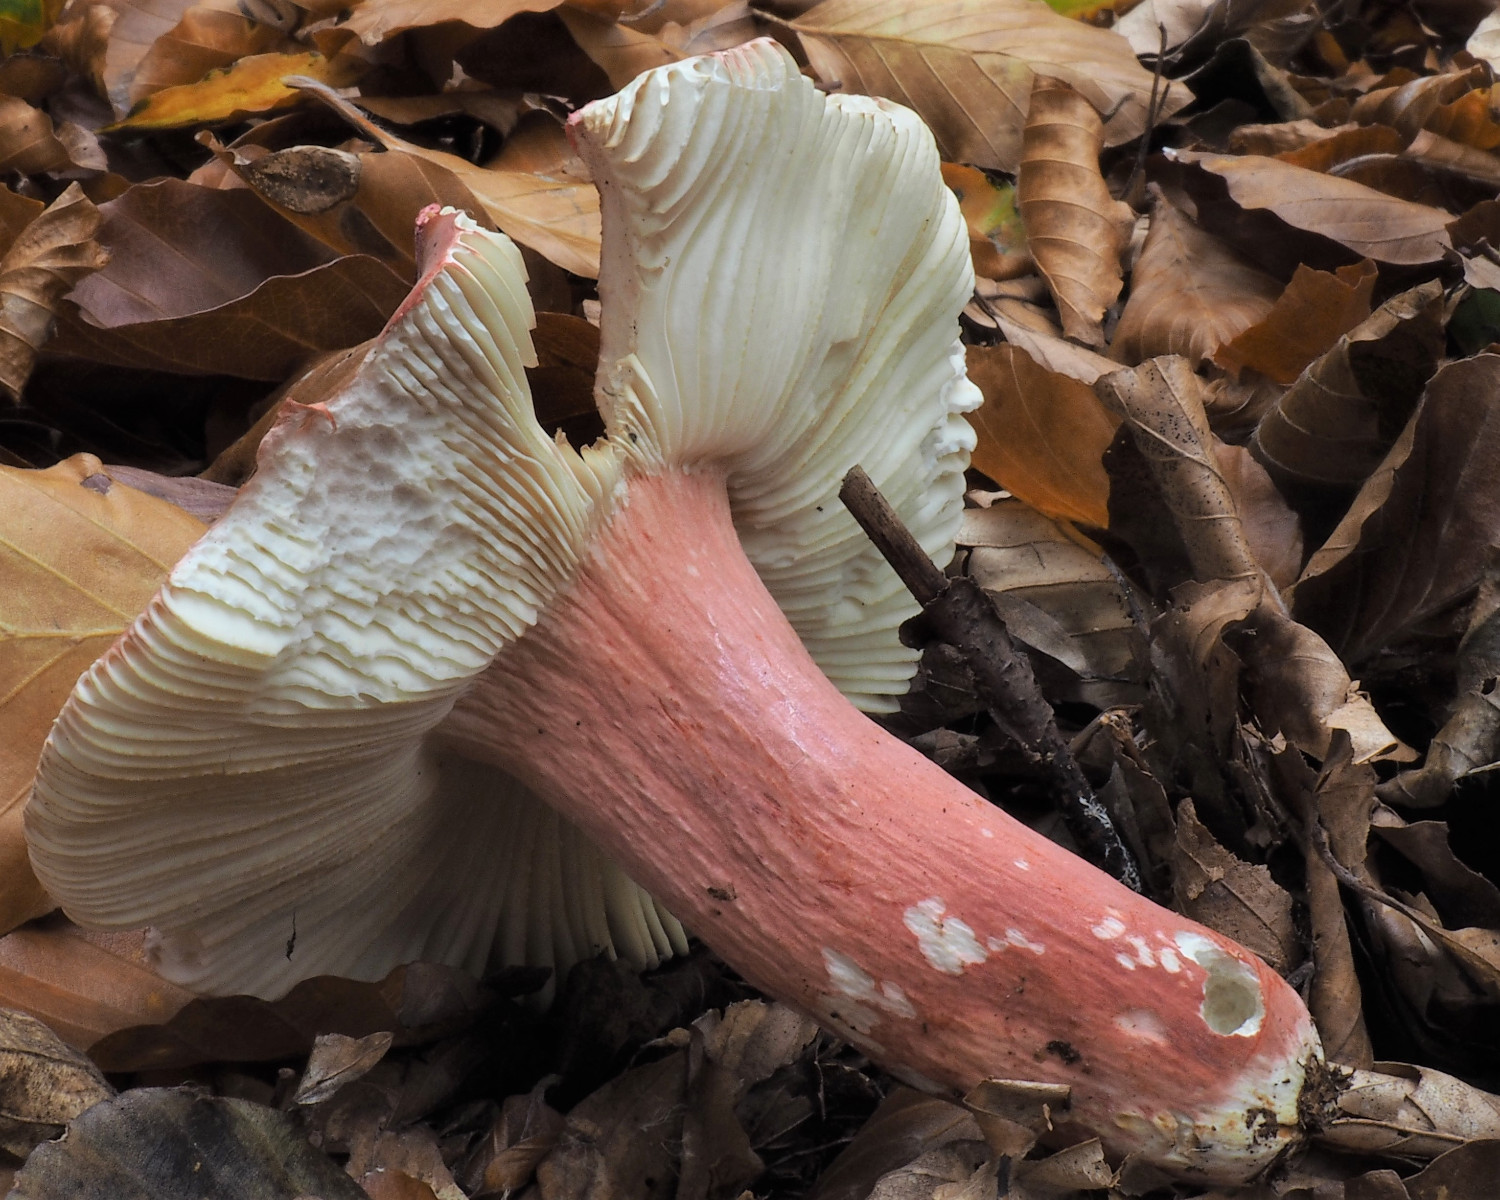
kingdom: Fungi
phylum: Basidiomycota
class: Agaricomycetes
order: Russulales
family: Russulaceae
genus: Russula
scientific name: Russula rosea
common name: fastkødet skørhat
